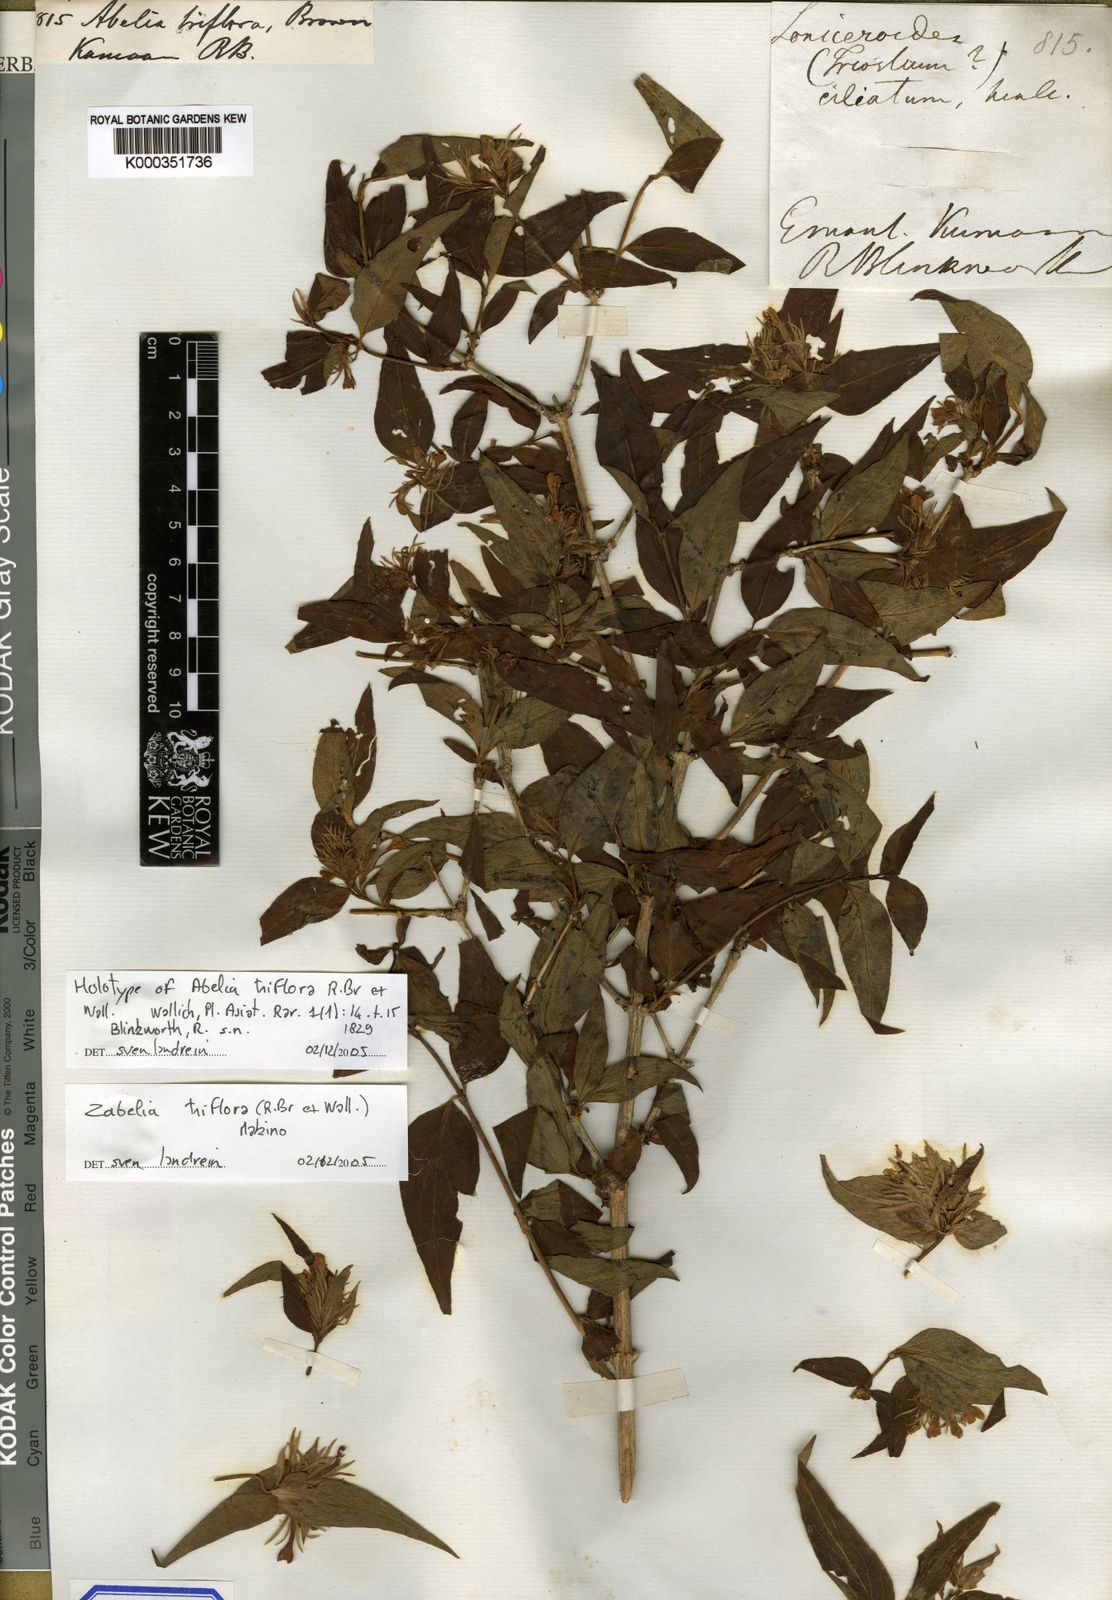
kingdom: Plantae
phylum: Tracheophyta
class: Magnoliopsida
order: Dipsacales
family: Caprifoliaceae
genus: Abelia
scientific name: Abelia
